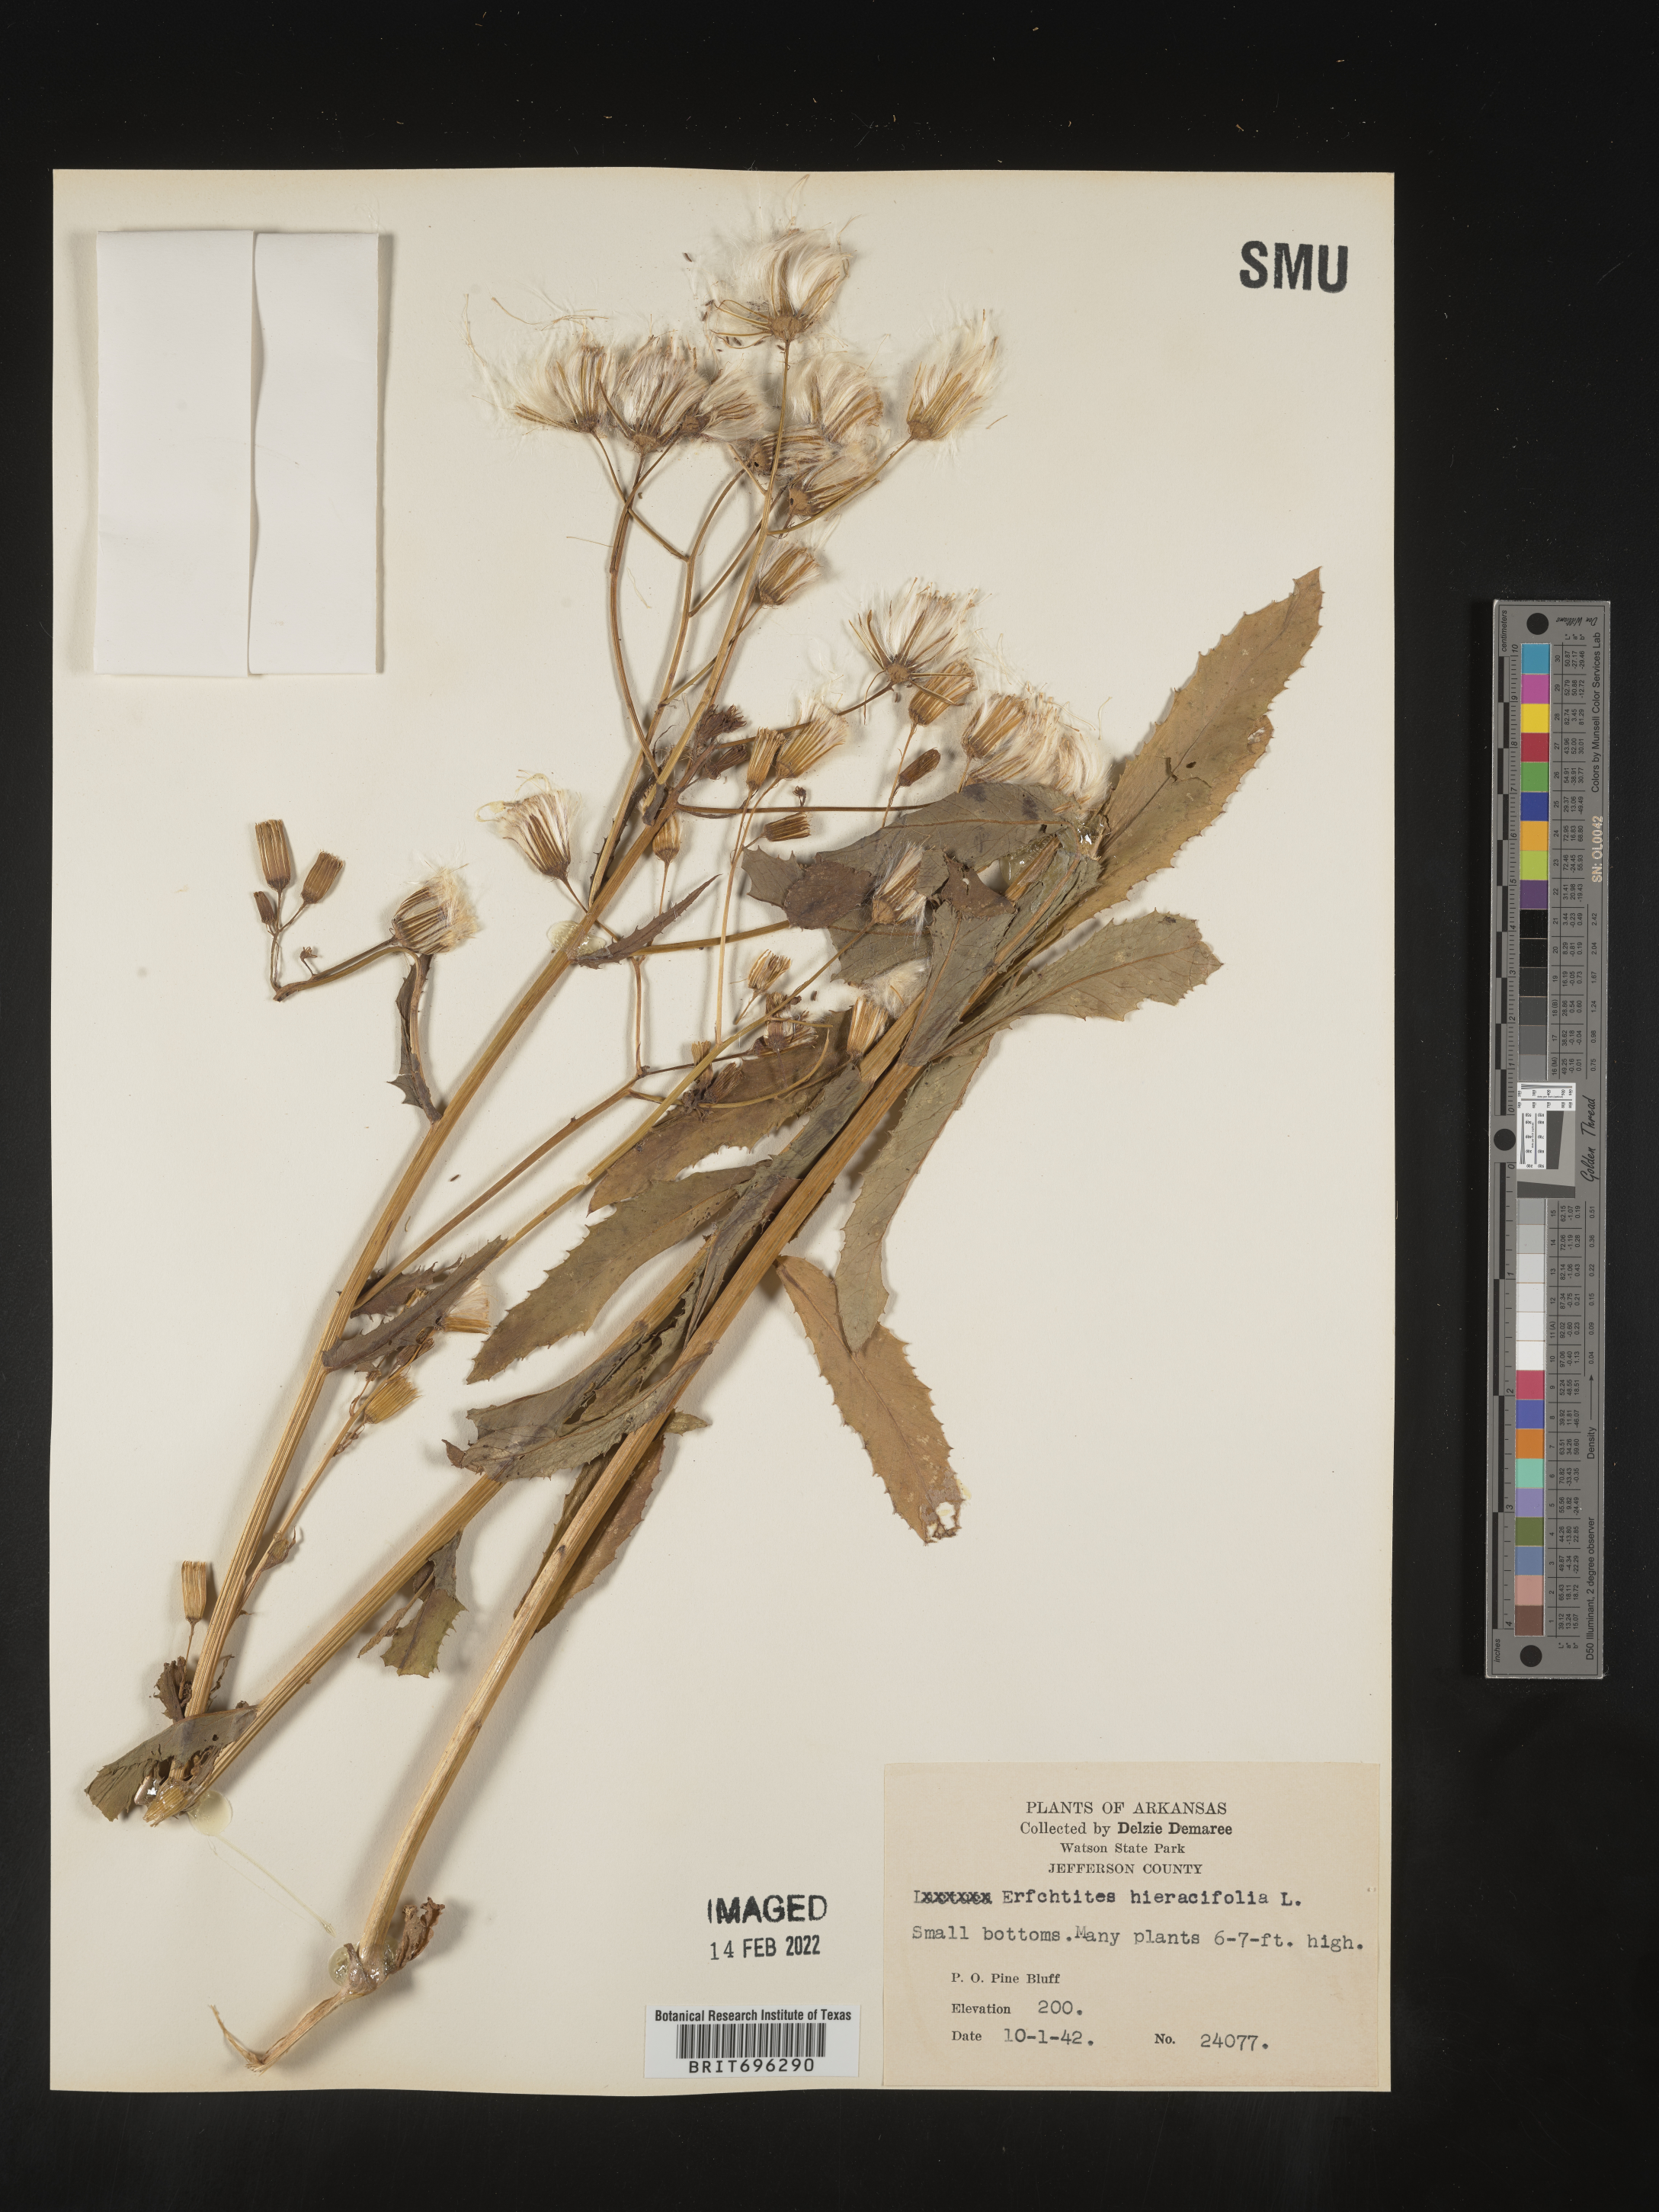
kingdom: Plantae
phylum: Tracheophyta
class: Magnoliopsida
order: Asterales
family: Asteraceae
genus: Erechtites
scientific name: Erechtites hieraciifolius
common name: American burnweed
